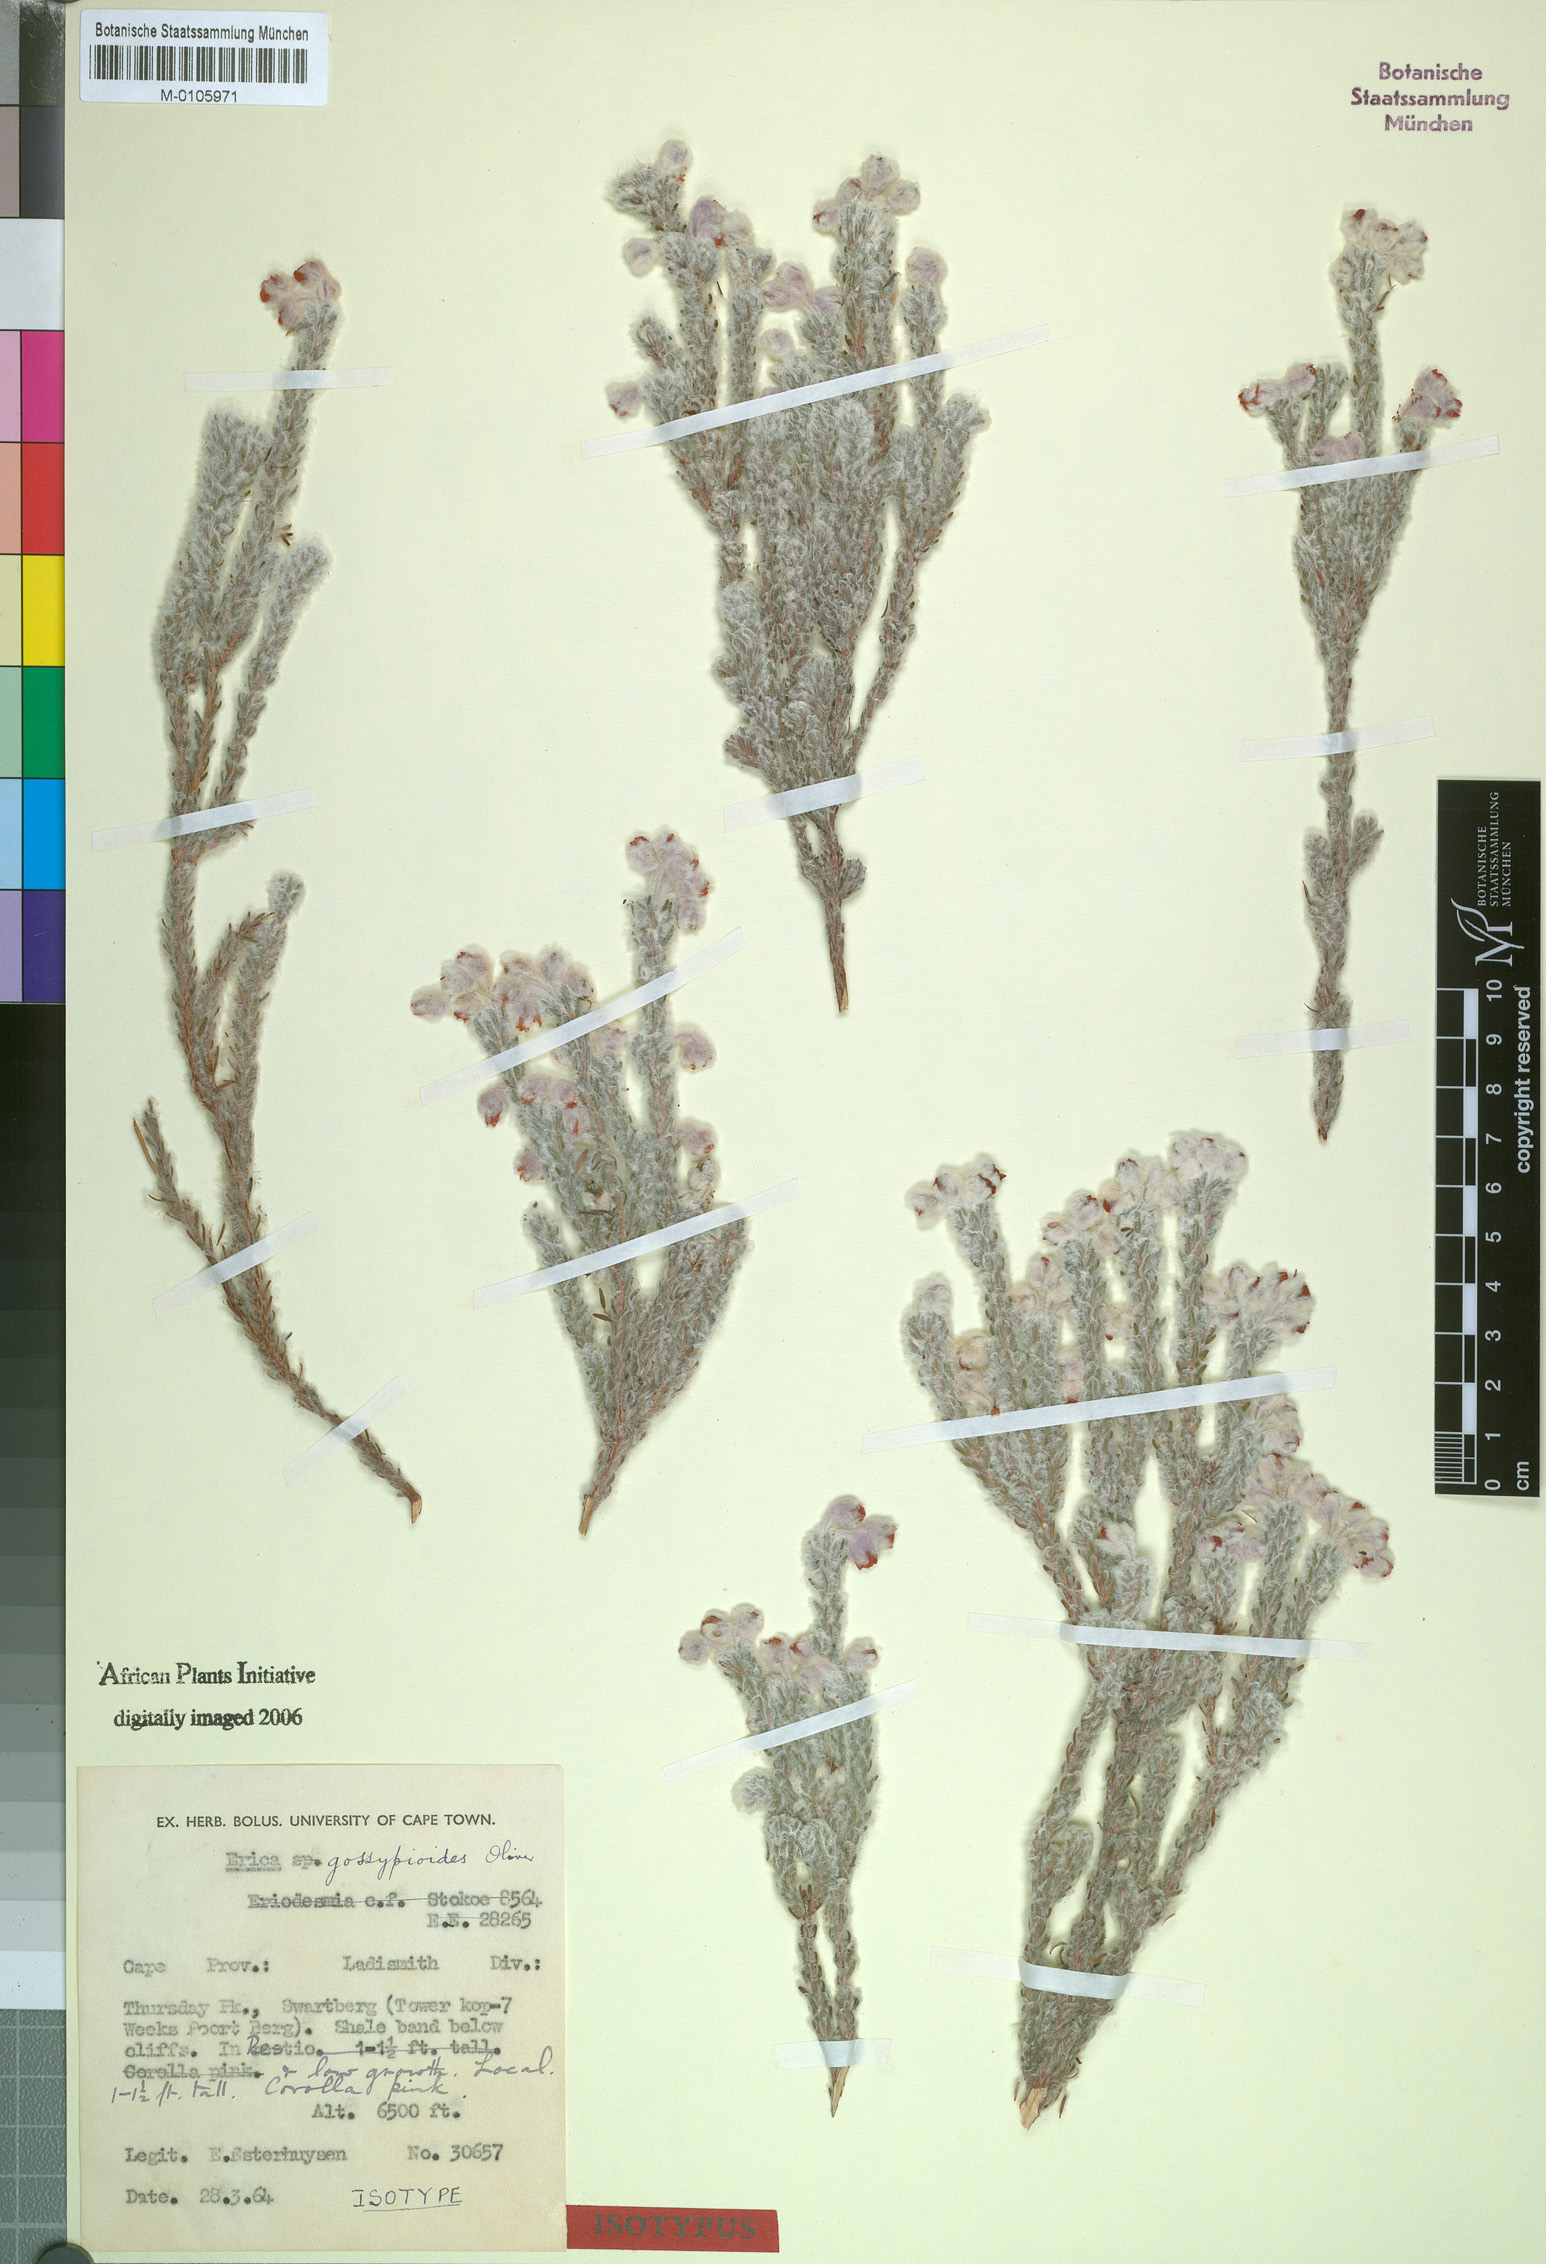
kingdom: Plantae
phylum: Tracheophyta
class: Magnoliopsida
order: Ericales
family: Ericaceae
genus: Erica
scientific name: Erica gossypioides
